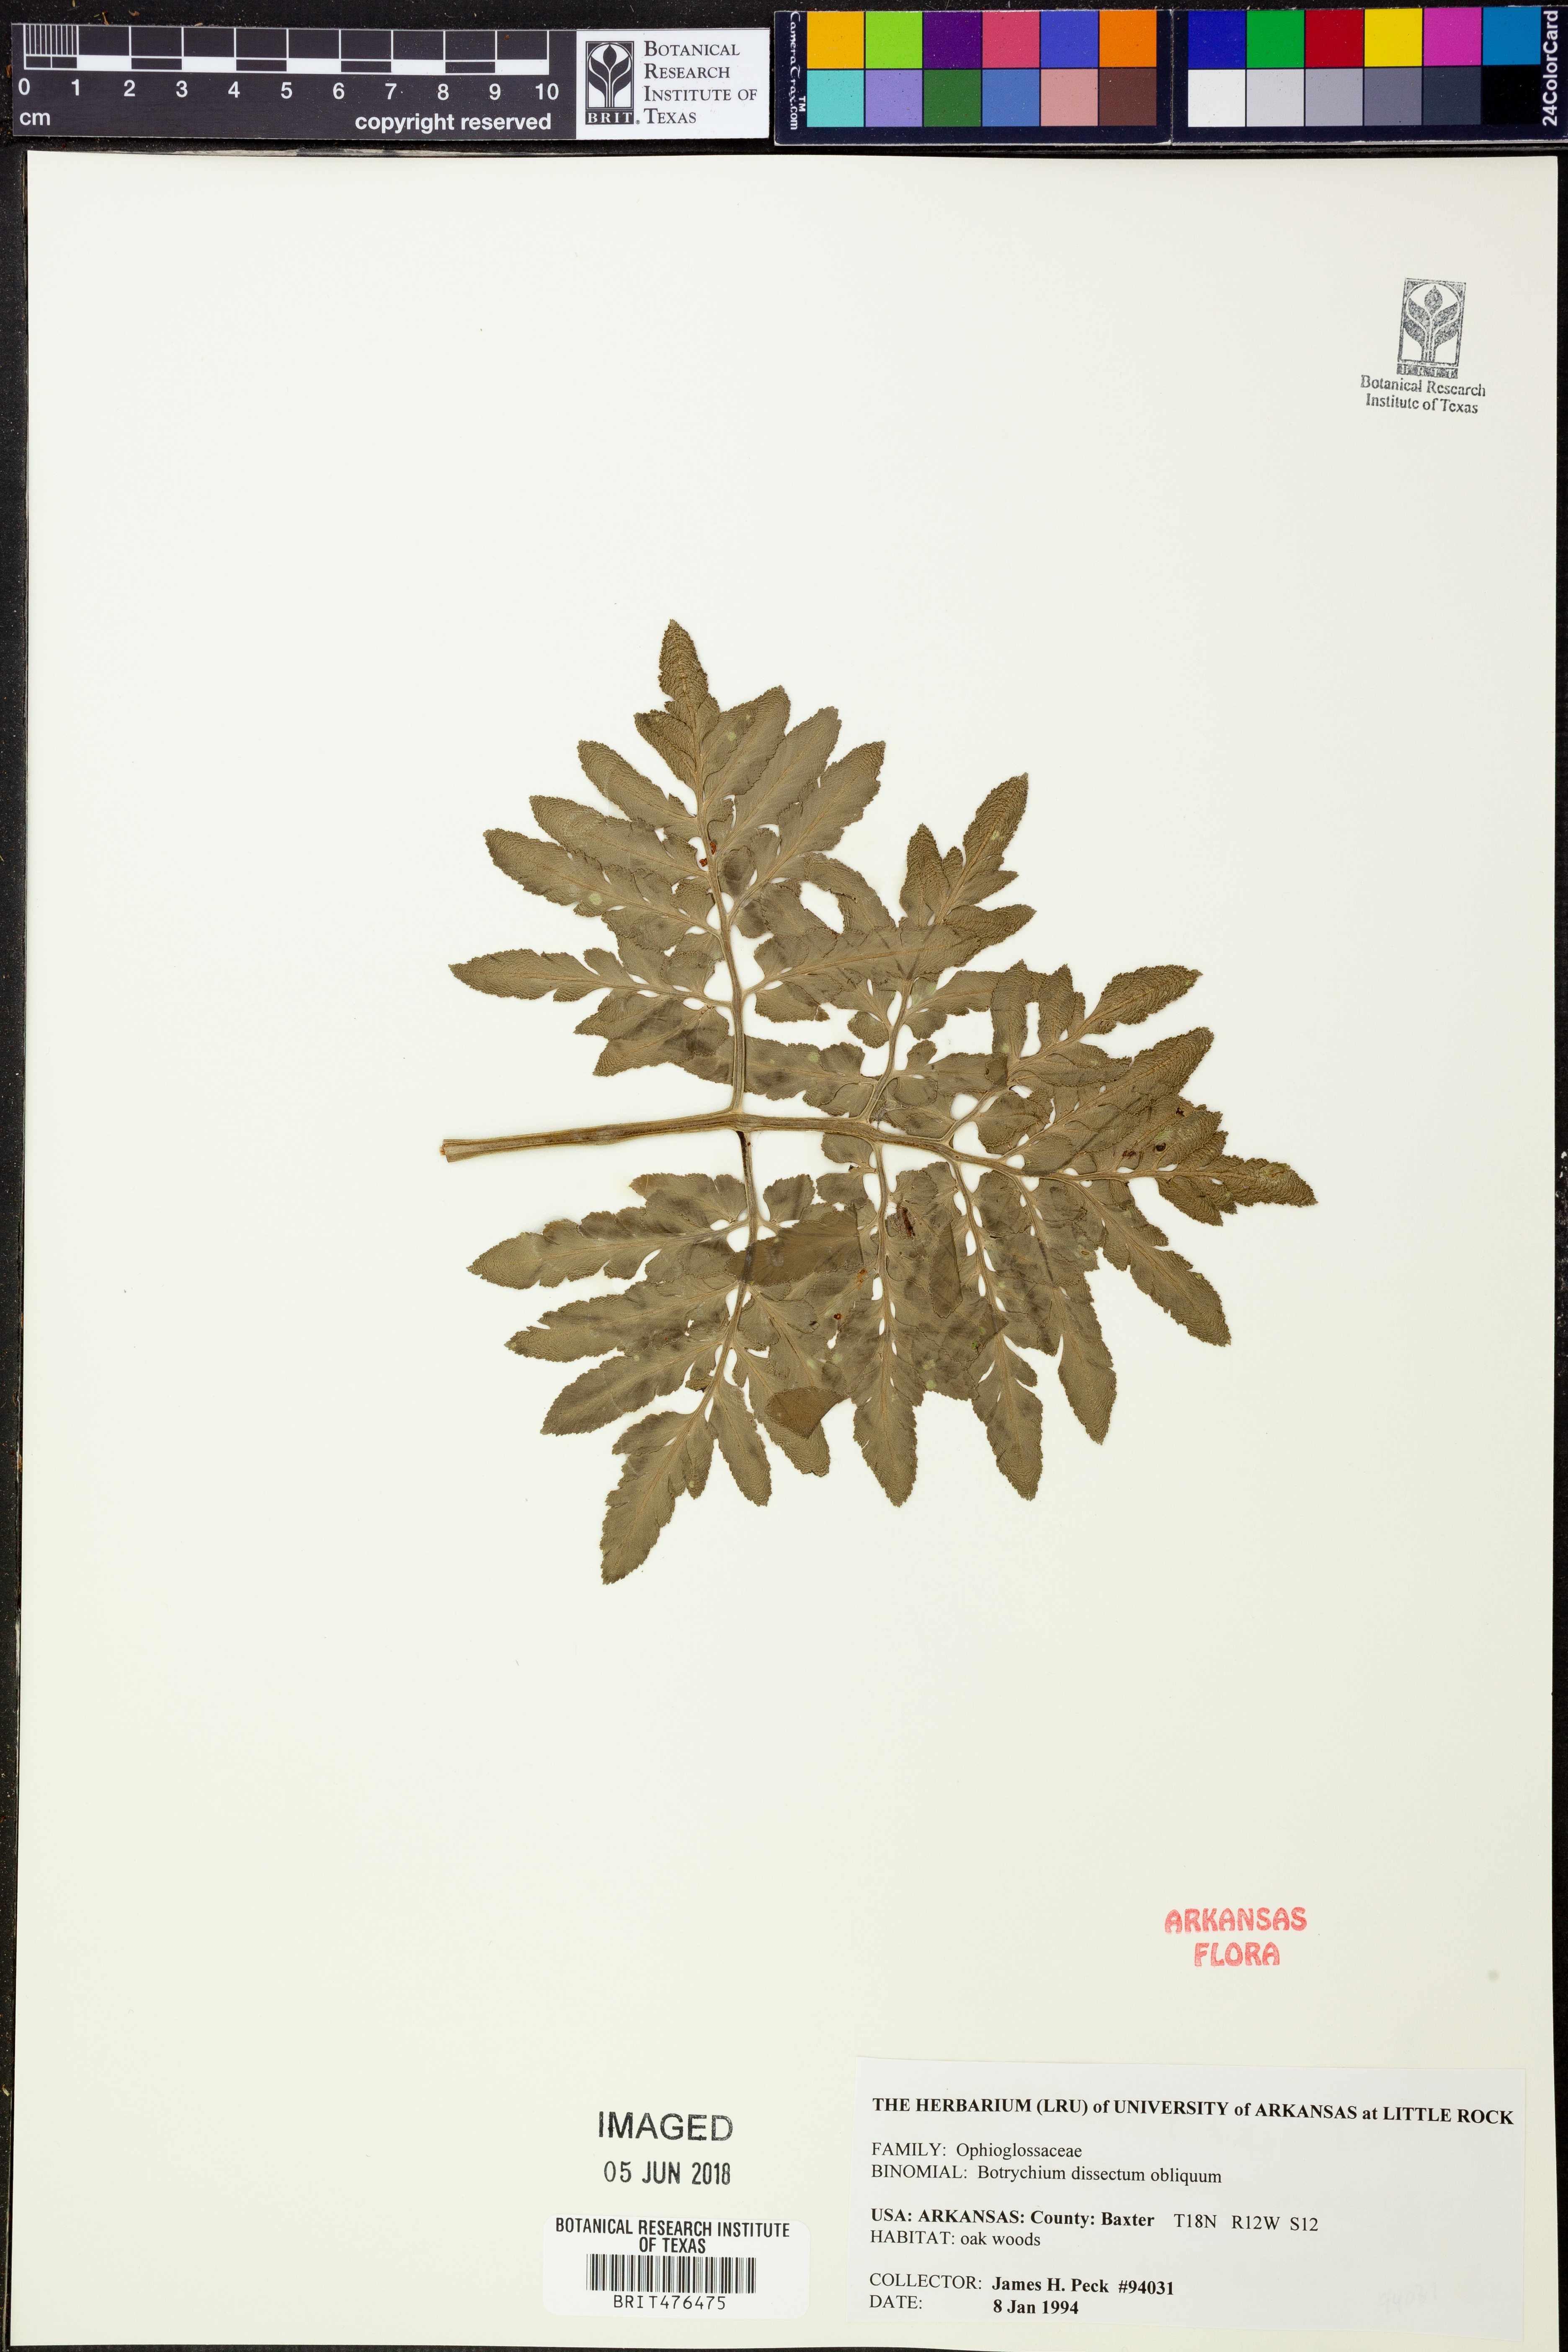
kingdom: Plantae
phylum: Tracheophyta
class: Polypodiopsida
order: Ophioglossales
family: Ophioglossaceae
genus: Sceptridium
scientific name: Sceptridium dissectum
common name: Cut-leaved grapefern
